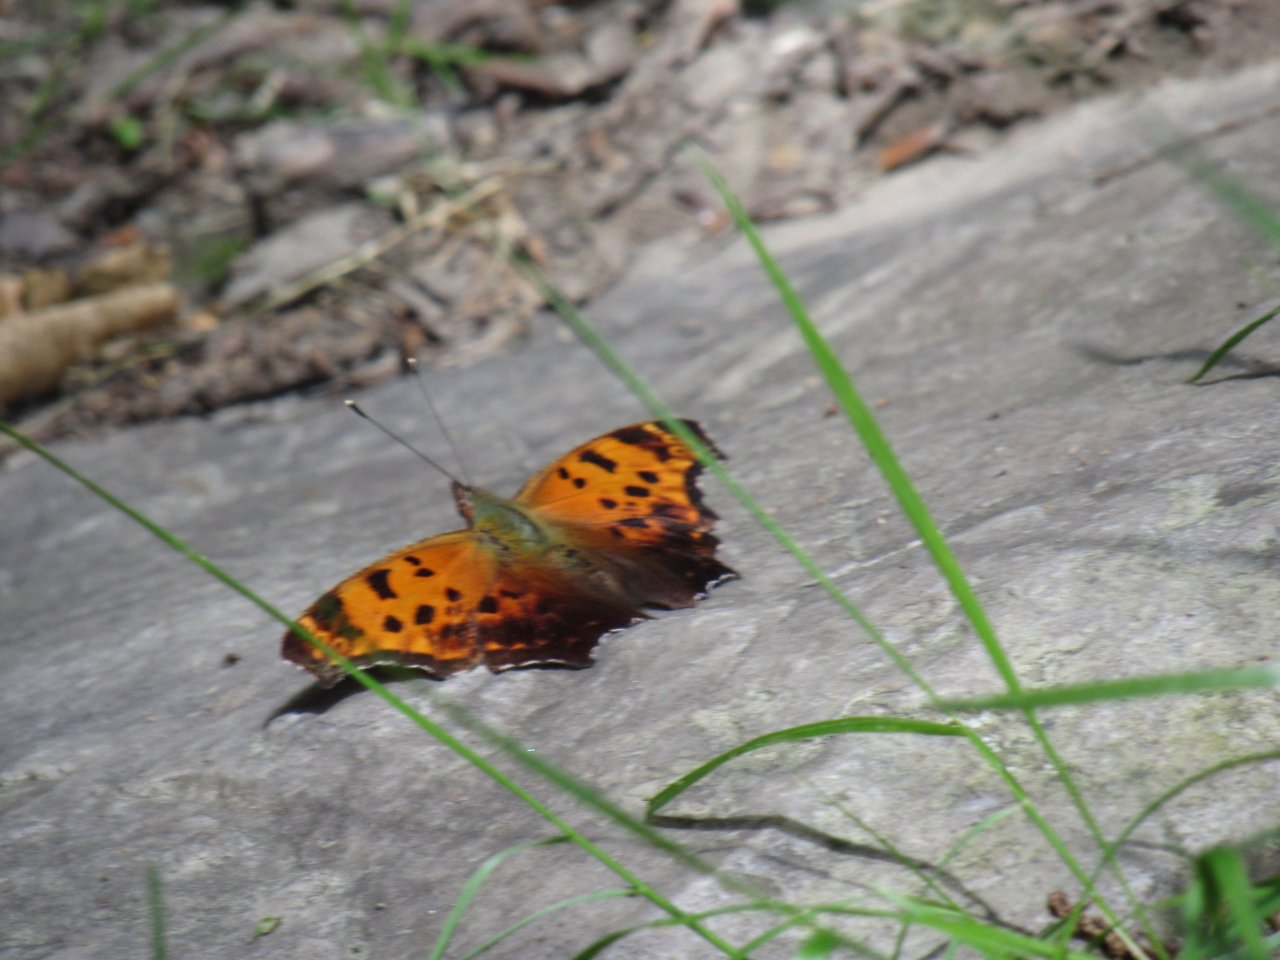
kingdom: Animalia
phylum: Arthropoda
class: Insecta
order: Lepidoptera
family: Nymphalidae
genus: Polygonia
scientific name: Polygonia comma
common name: Eastern Comma
